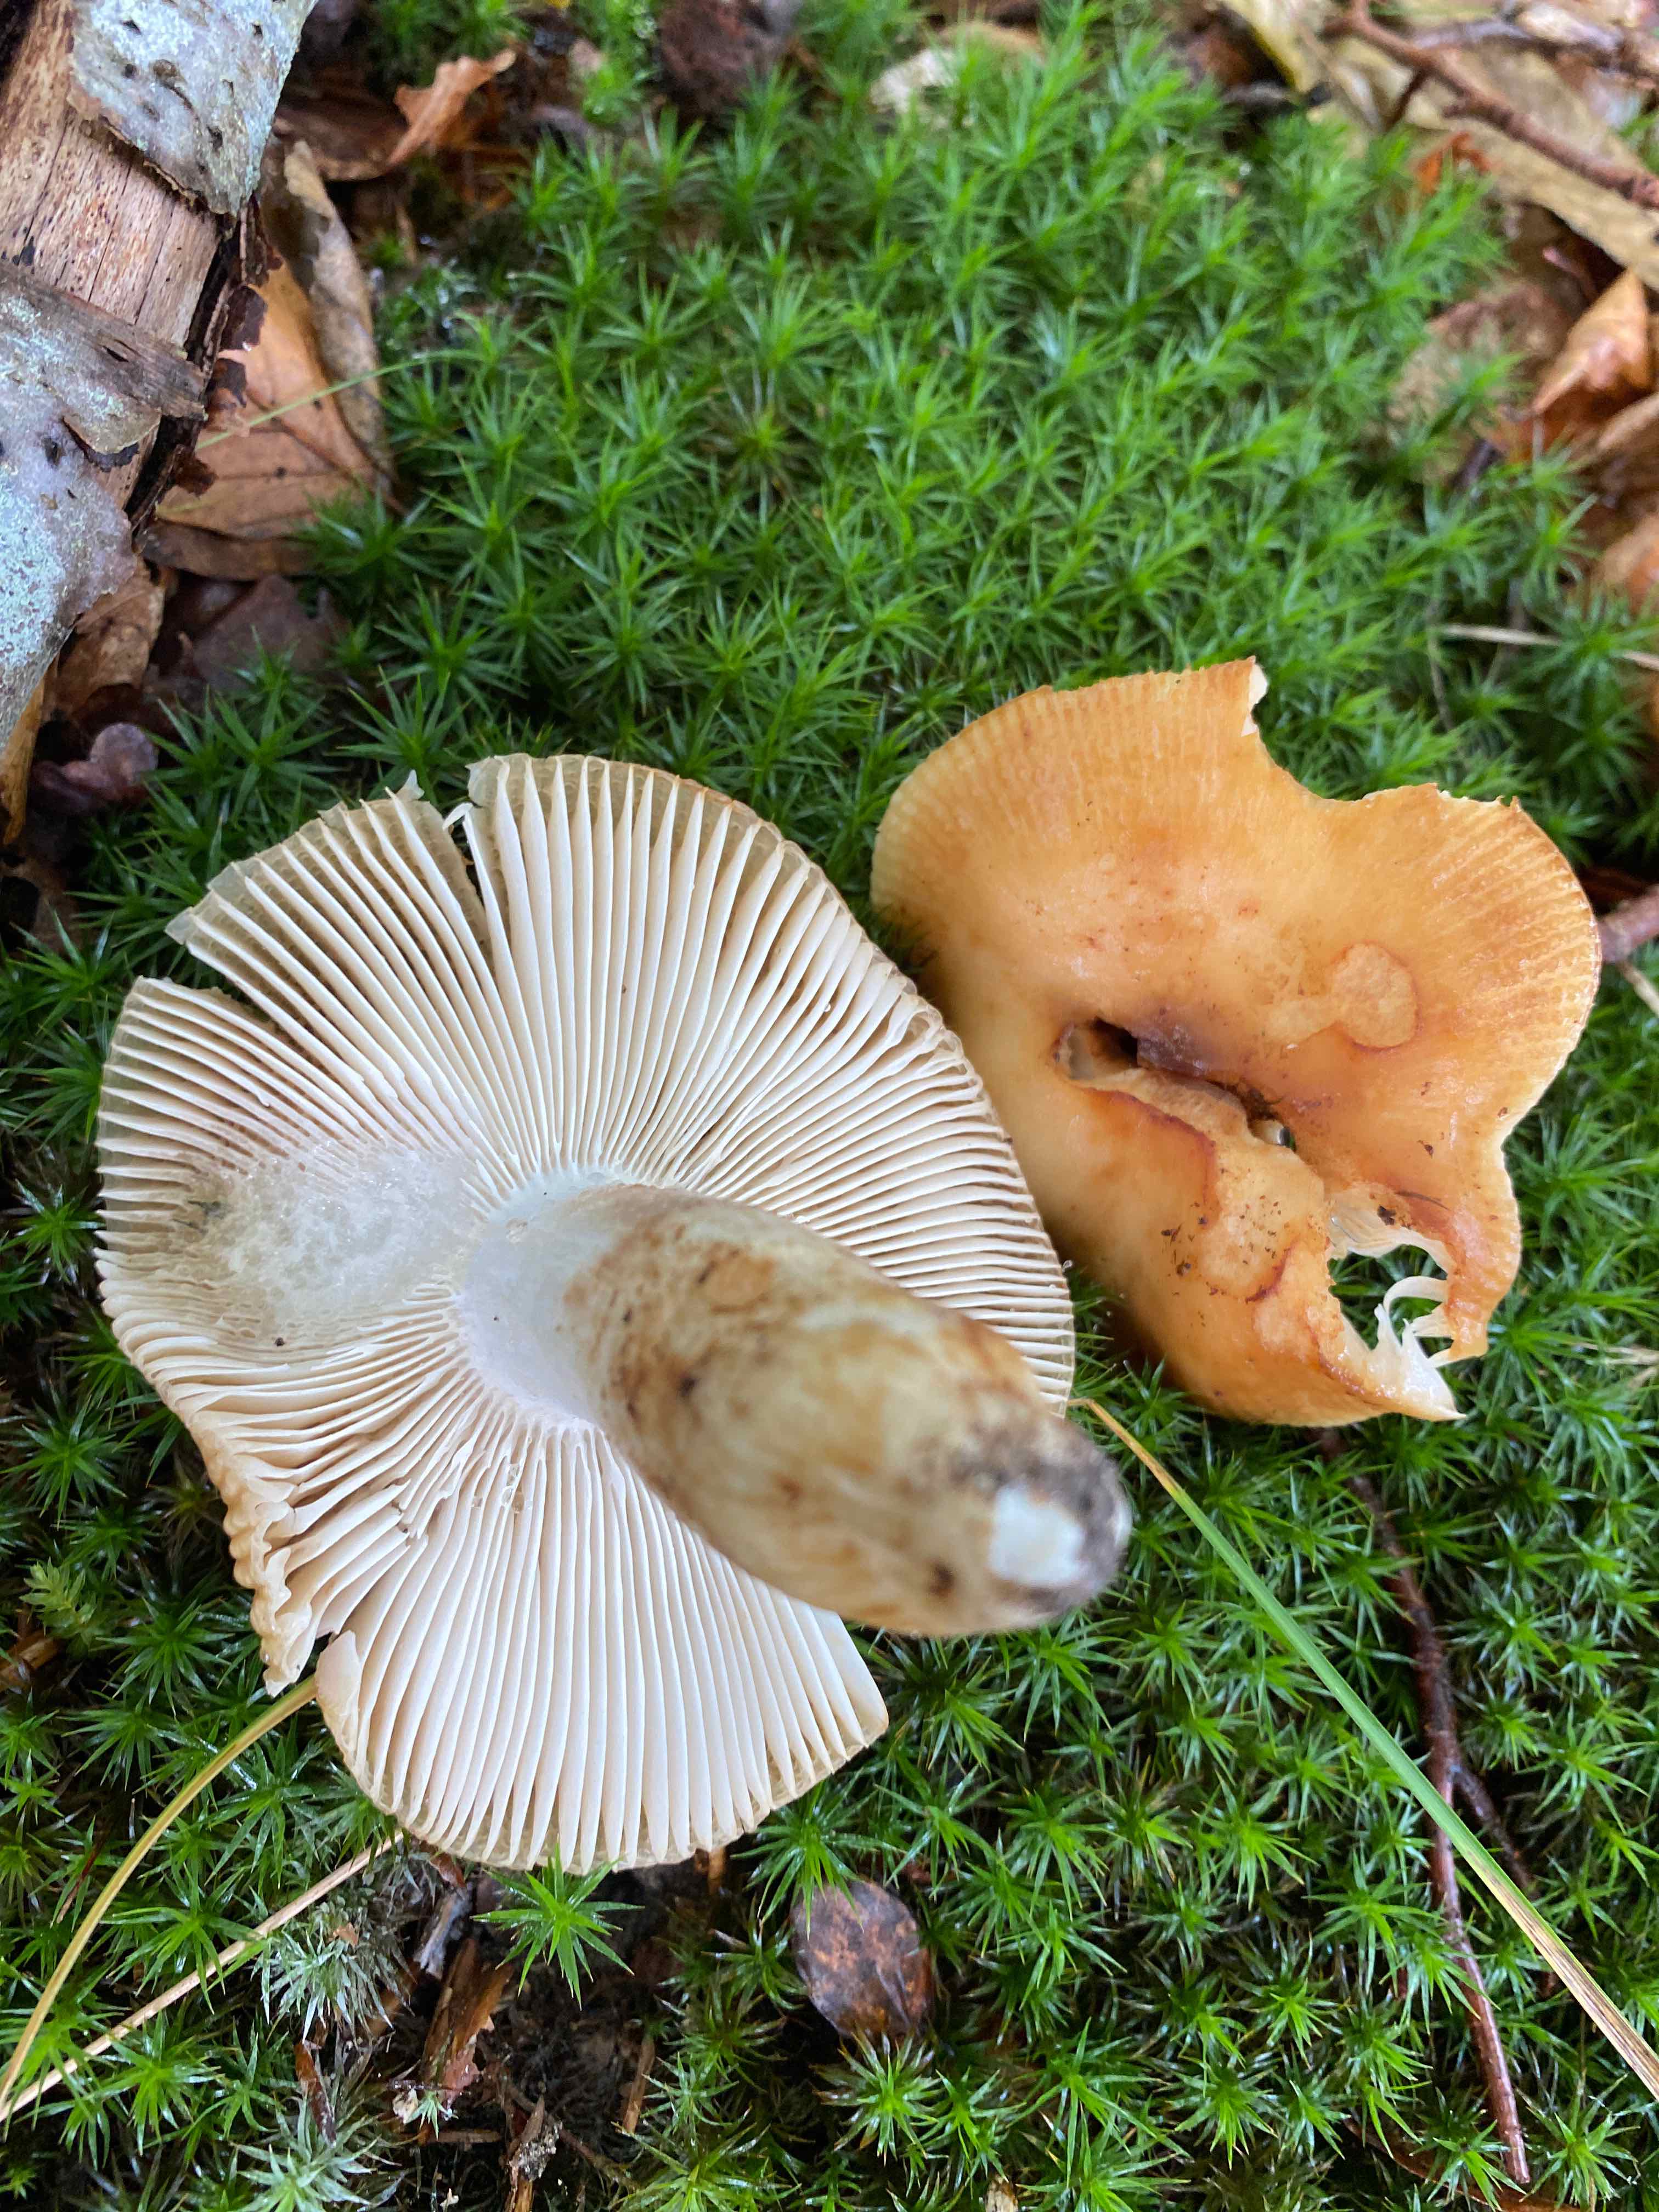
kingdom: Fungi
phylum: Basidiomycota
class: Agaricomycetes
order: Russulales
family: Russulaceae
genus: Russula
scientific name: Russula grata
